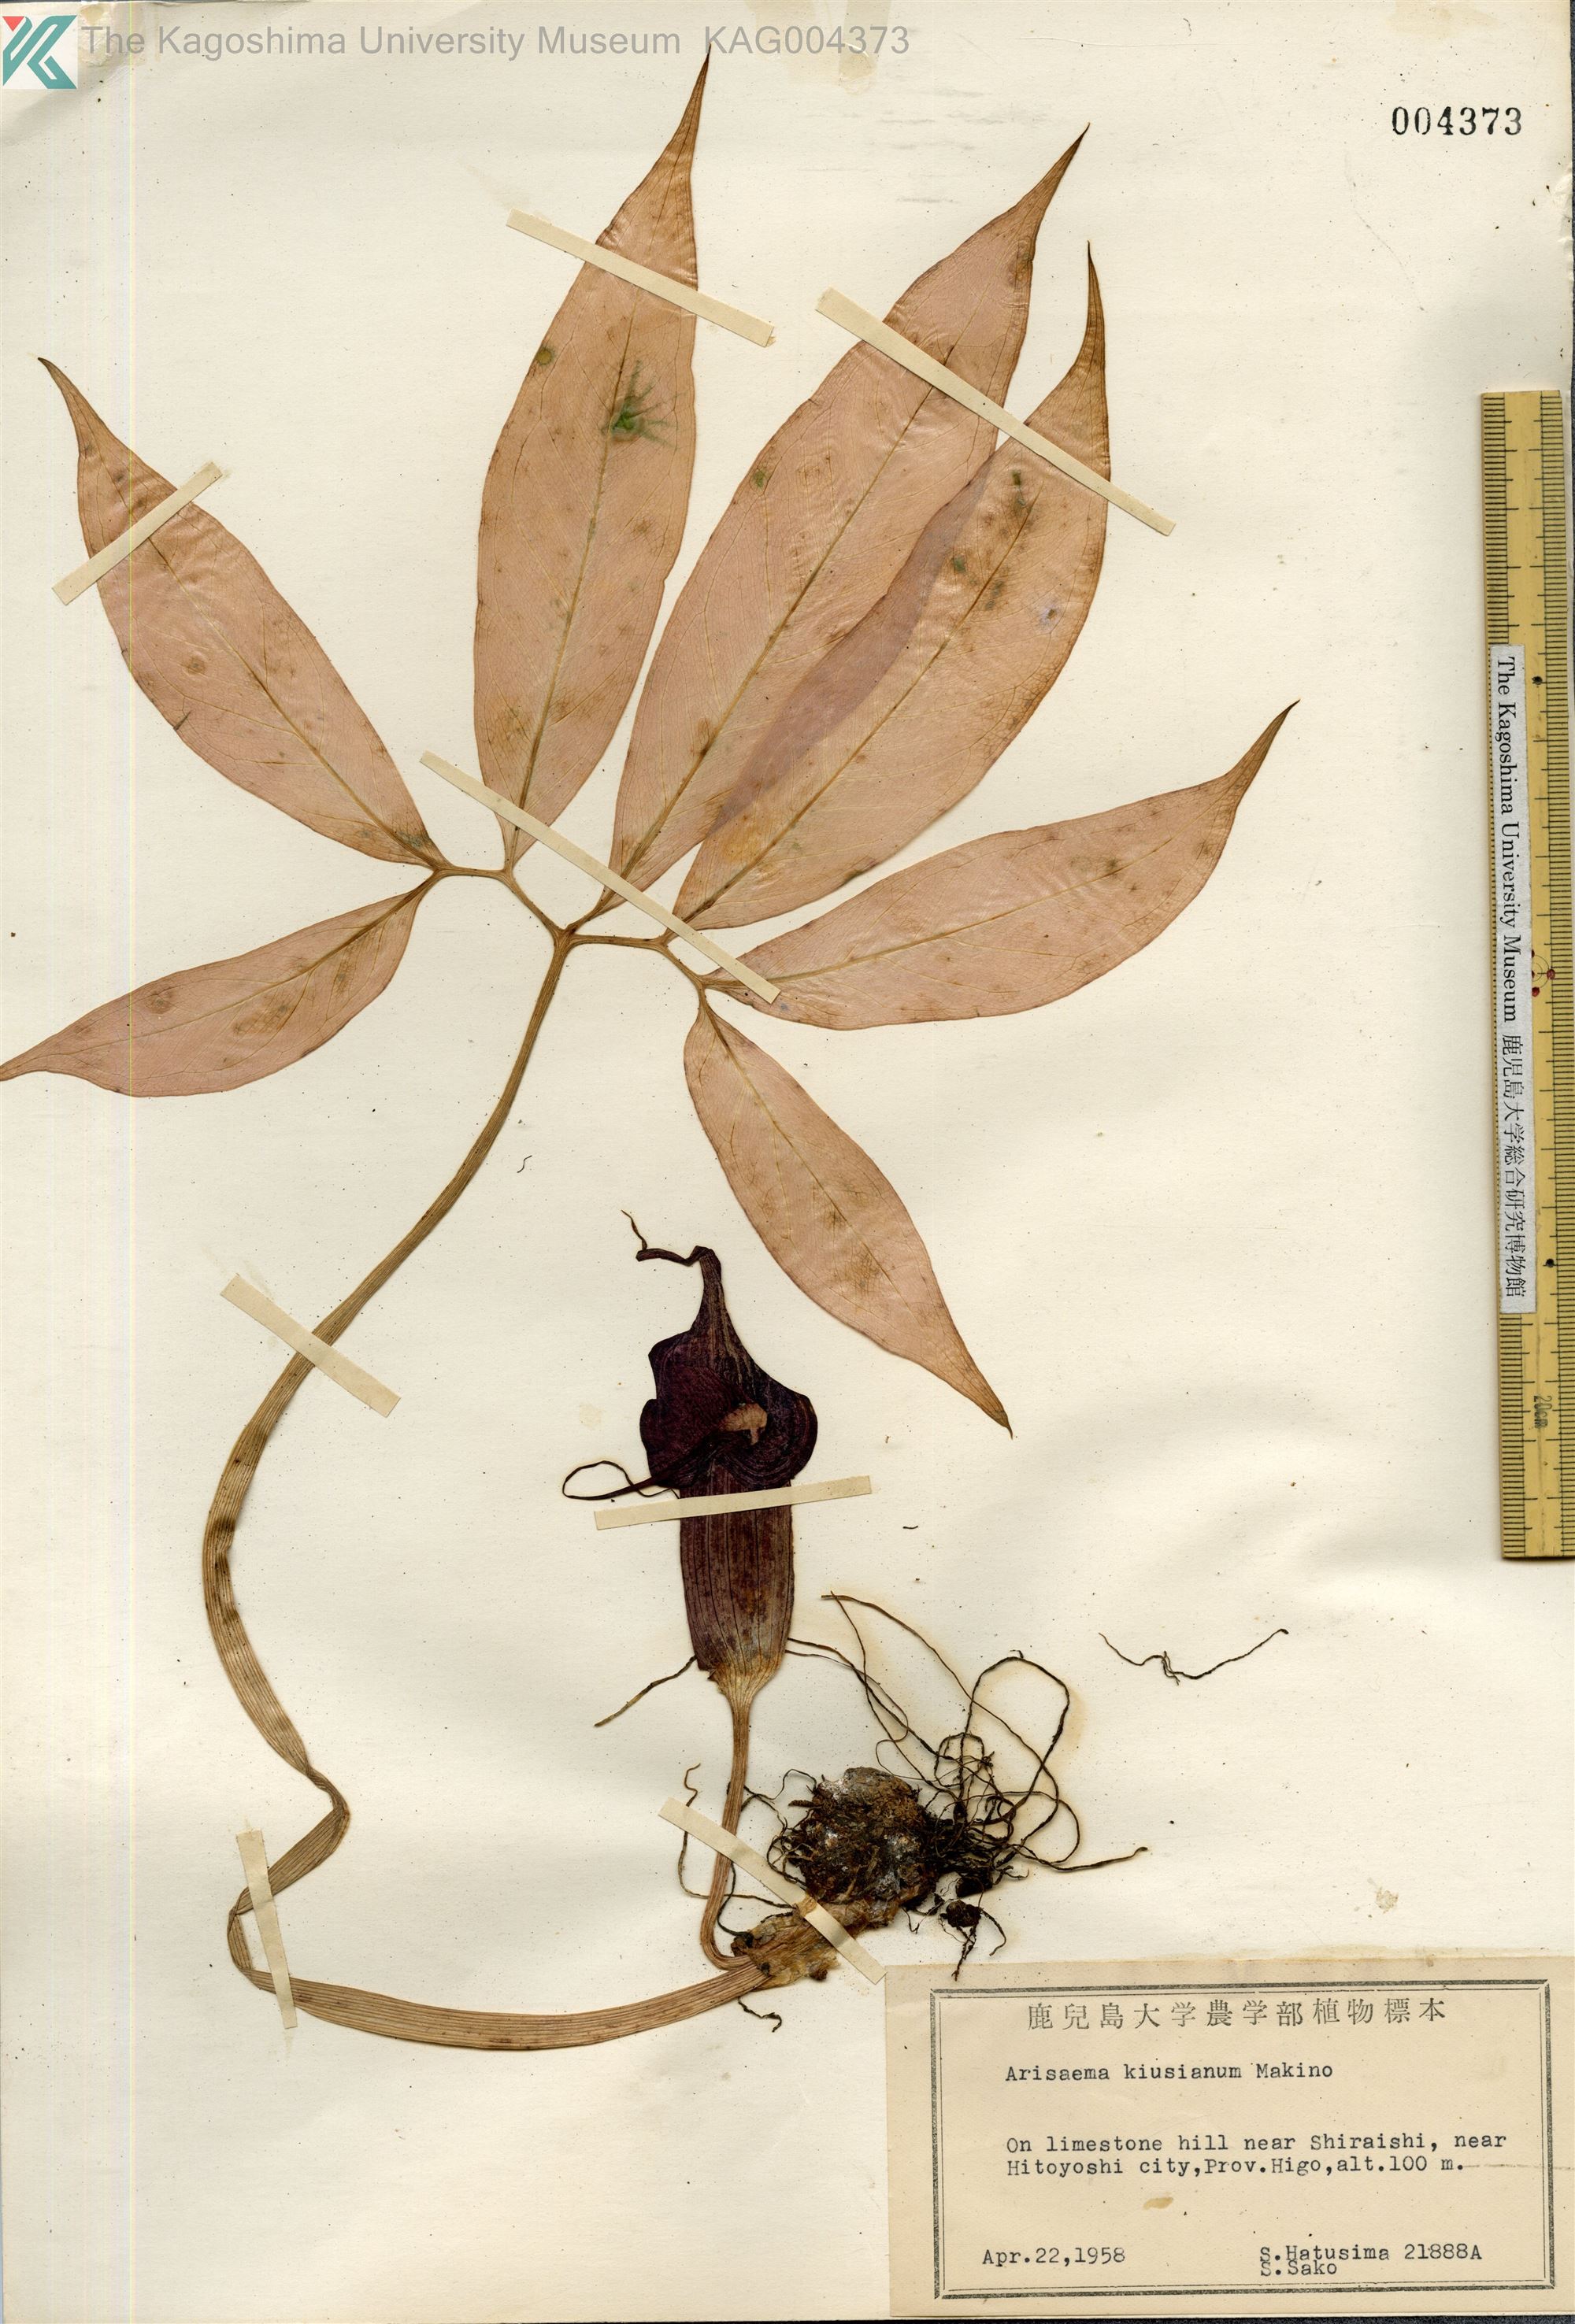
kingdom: Plantae
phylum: Tracheophyta
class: Liliopsida
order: Alismatales
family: Araceae
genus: Arisaema
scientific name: Arisaema kiushianum
